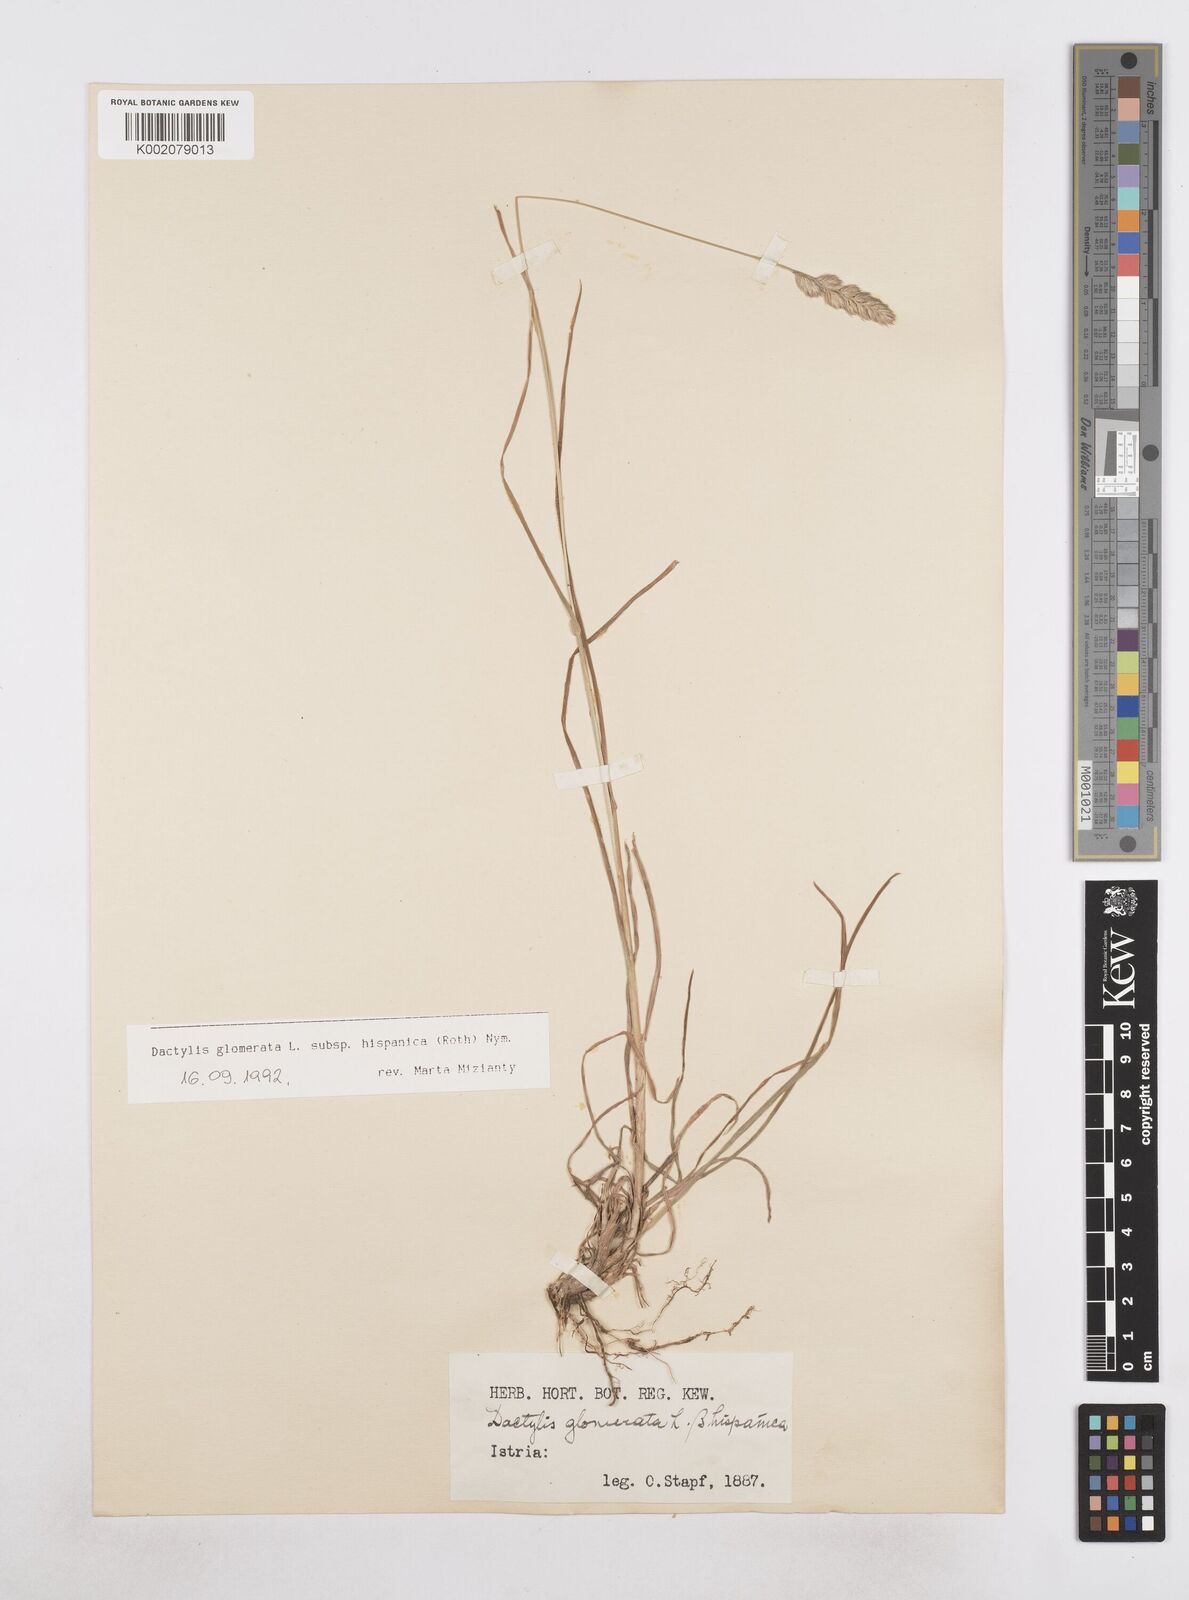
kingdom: Plantae
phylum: Tracheophyta
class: Liliopsida
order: Poales
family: Poaceae
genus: Dactylis
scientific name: Dactylis glomerata
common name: Orchardgrass
